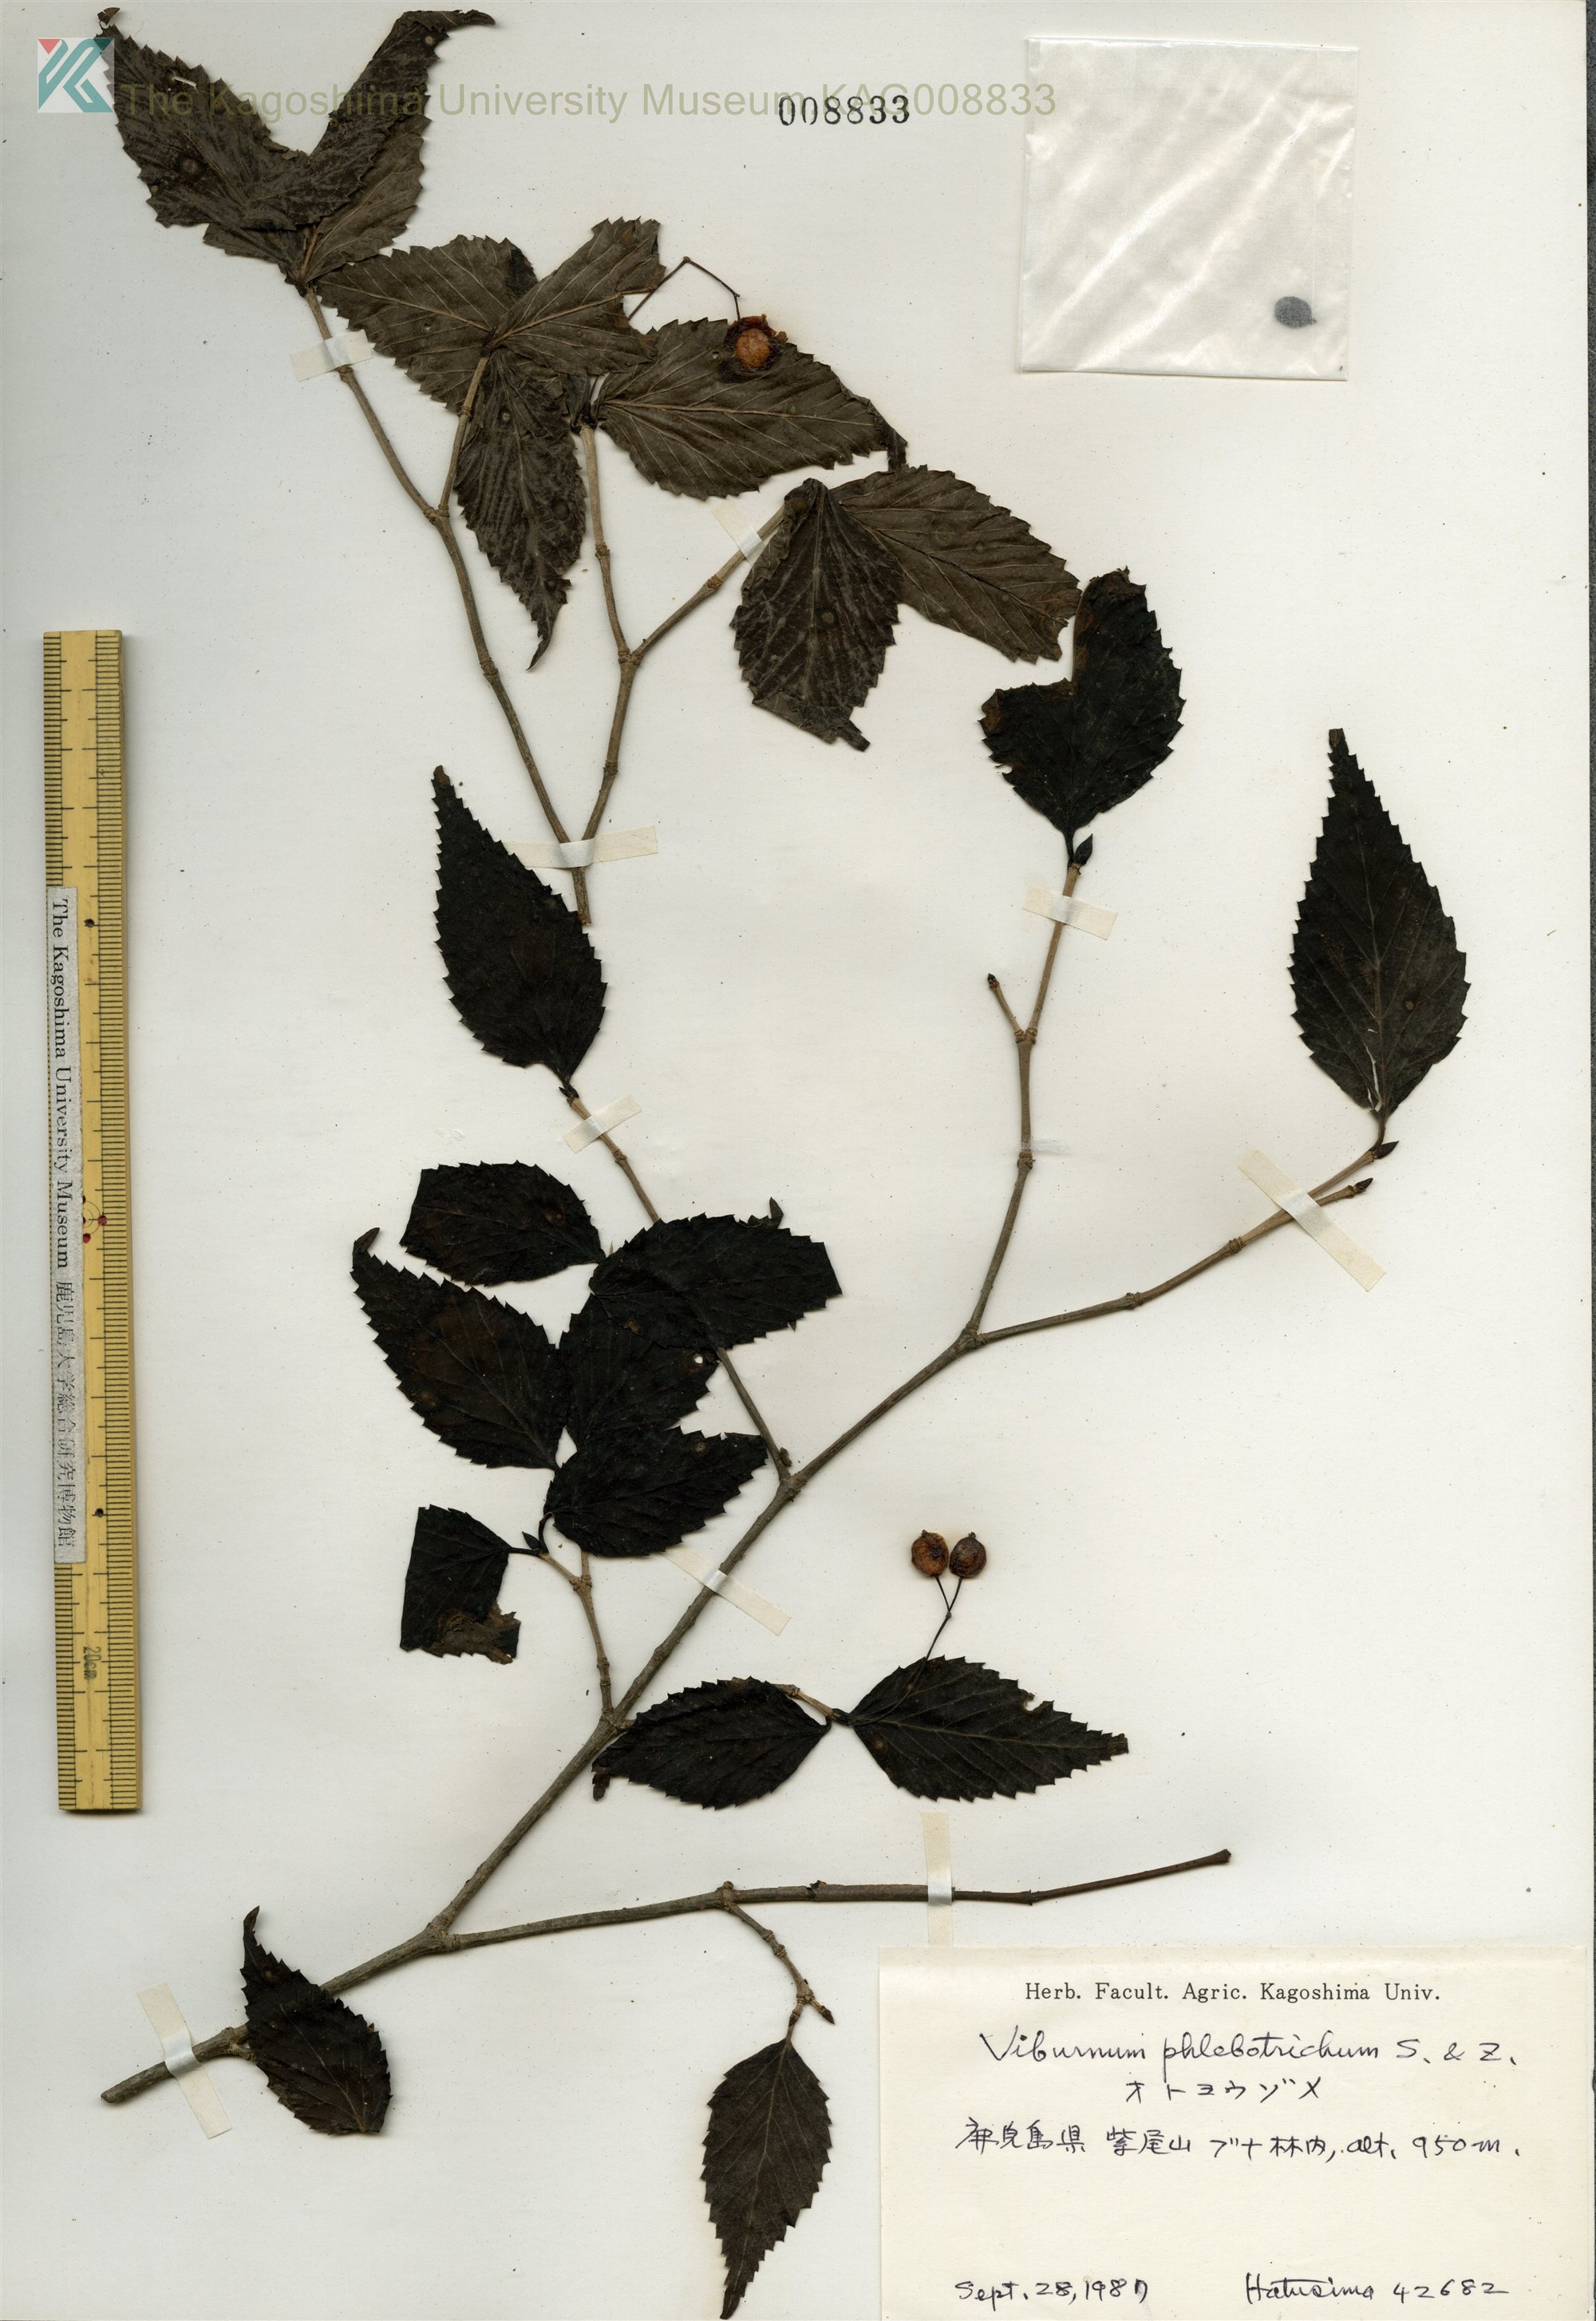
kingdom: Plantae
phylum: Tracheophyta
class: Magnoliopsida
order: Dipsacales
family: Viburnaceae
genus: Viburnum
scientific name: Viburnum phlebotrichum
